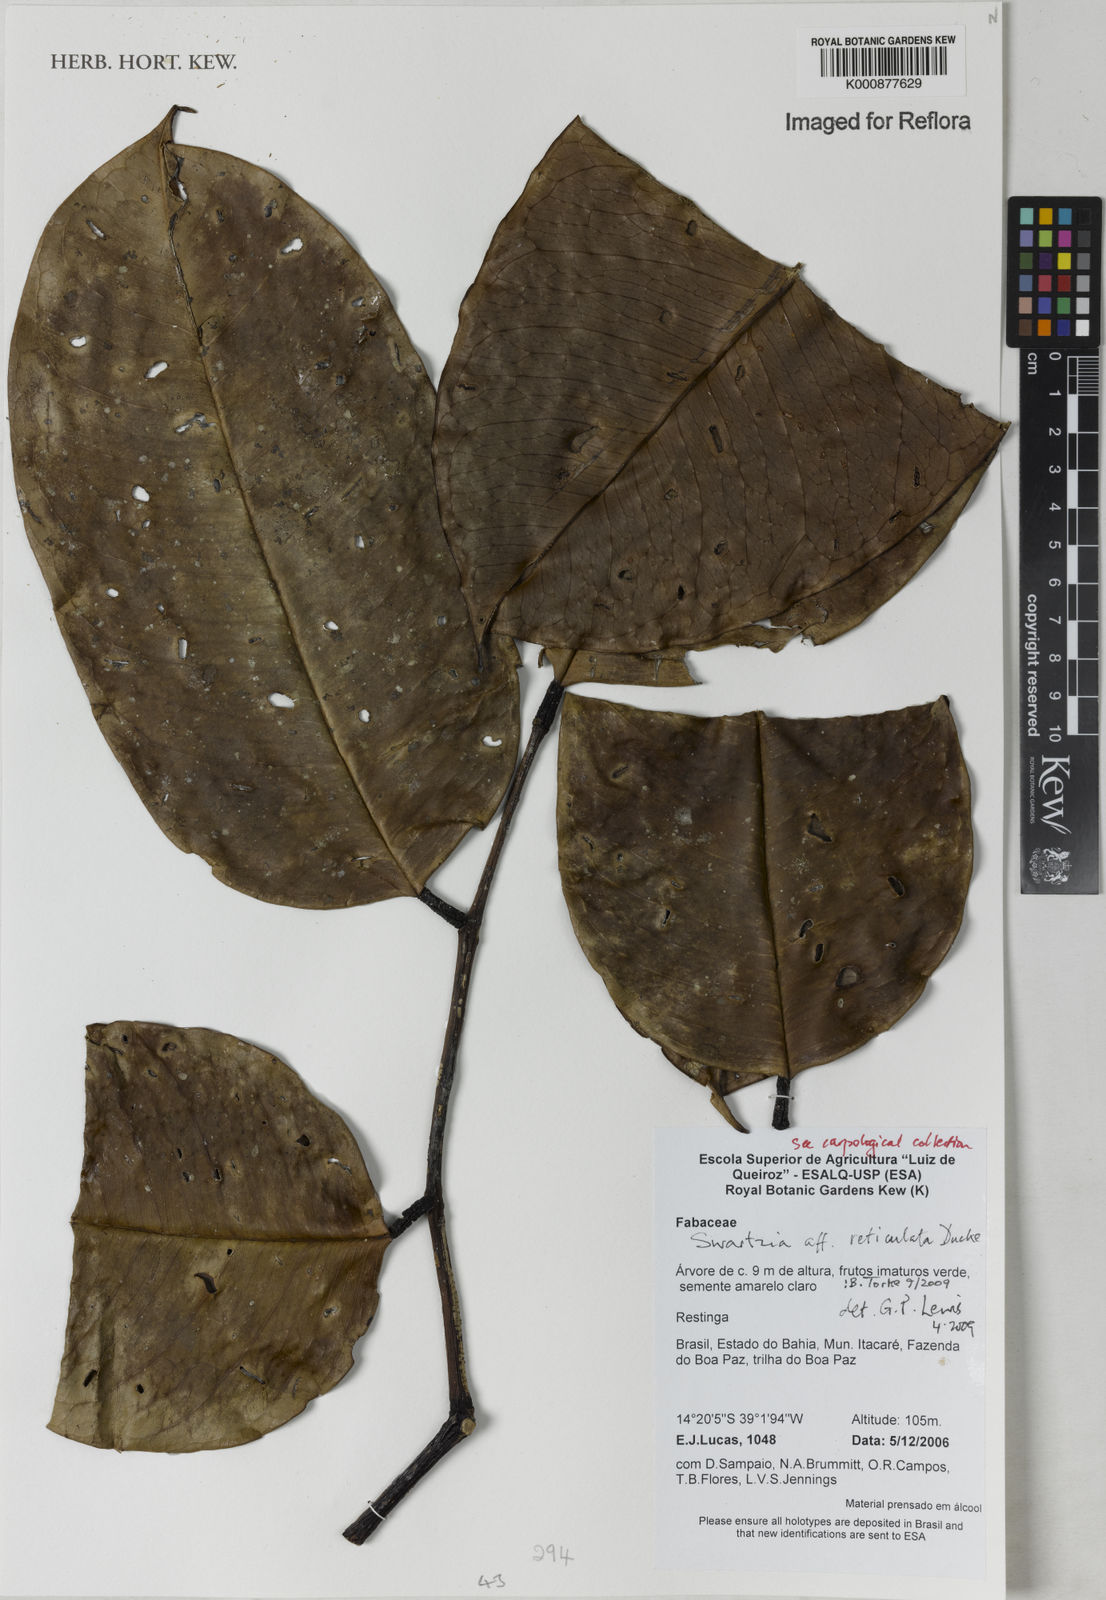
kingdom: Plantae
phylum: Tracheophyta
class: Magnoliopsida
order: Fabales
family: Fabaceae
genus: Swartzia
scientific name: Swartzia reticulata
